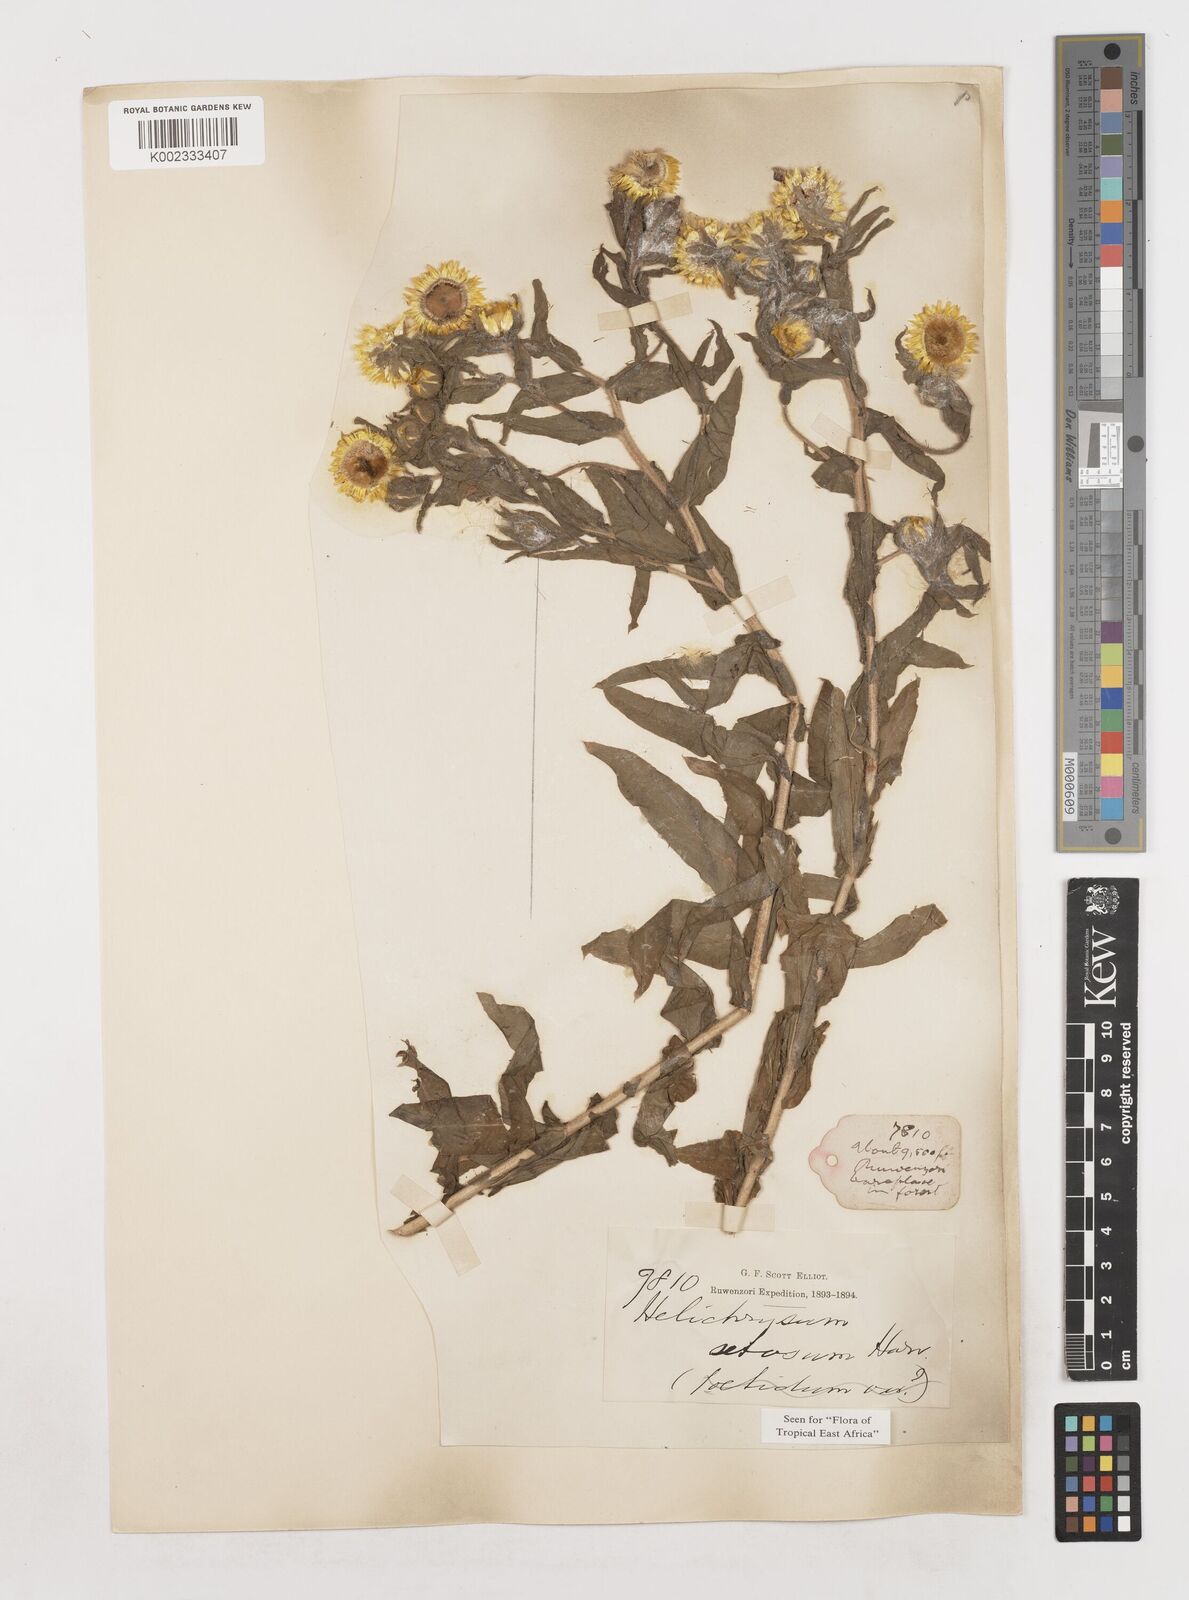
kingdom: Plantae
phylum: Tracheophyta
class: Magnoliopsida
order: Asterales
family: Asteraceae
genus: Helichrysum
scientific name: Helichrysum setosum
